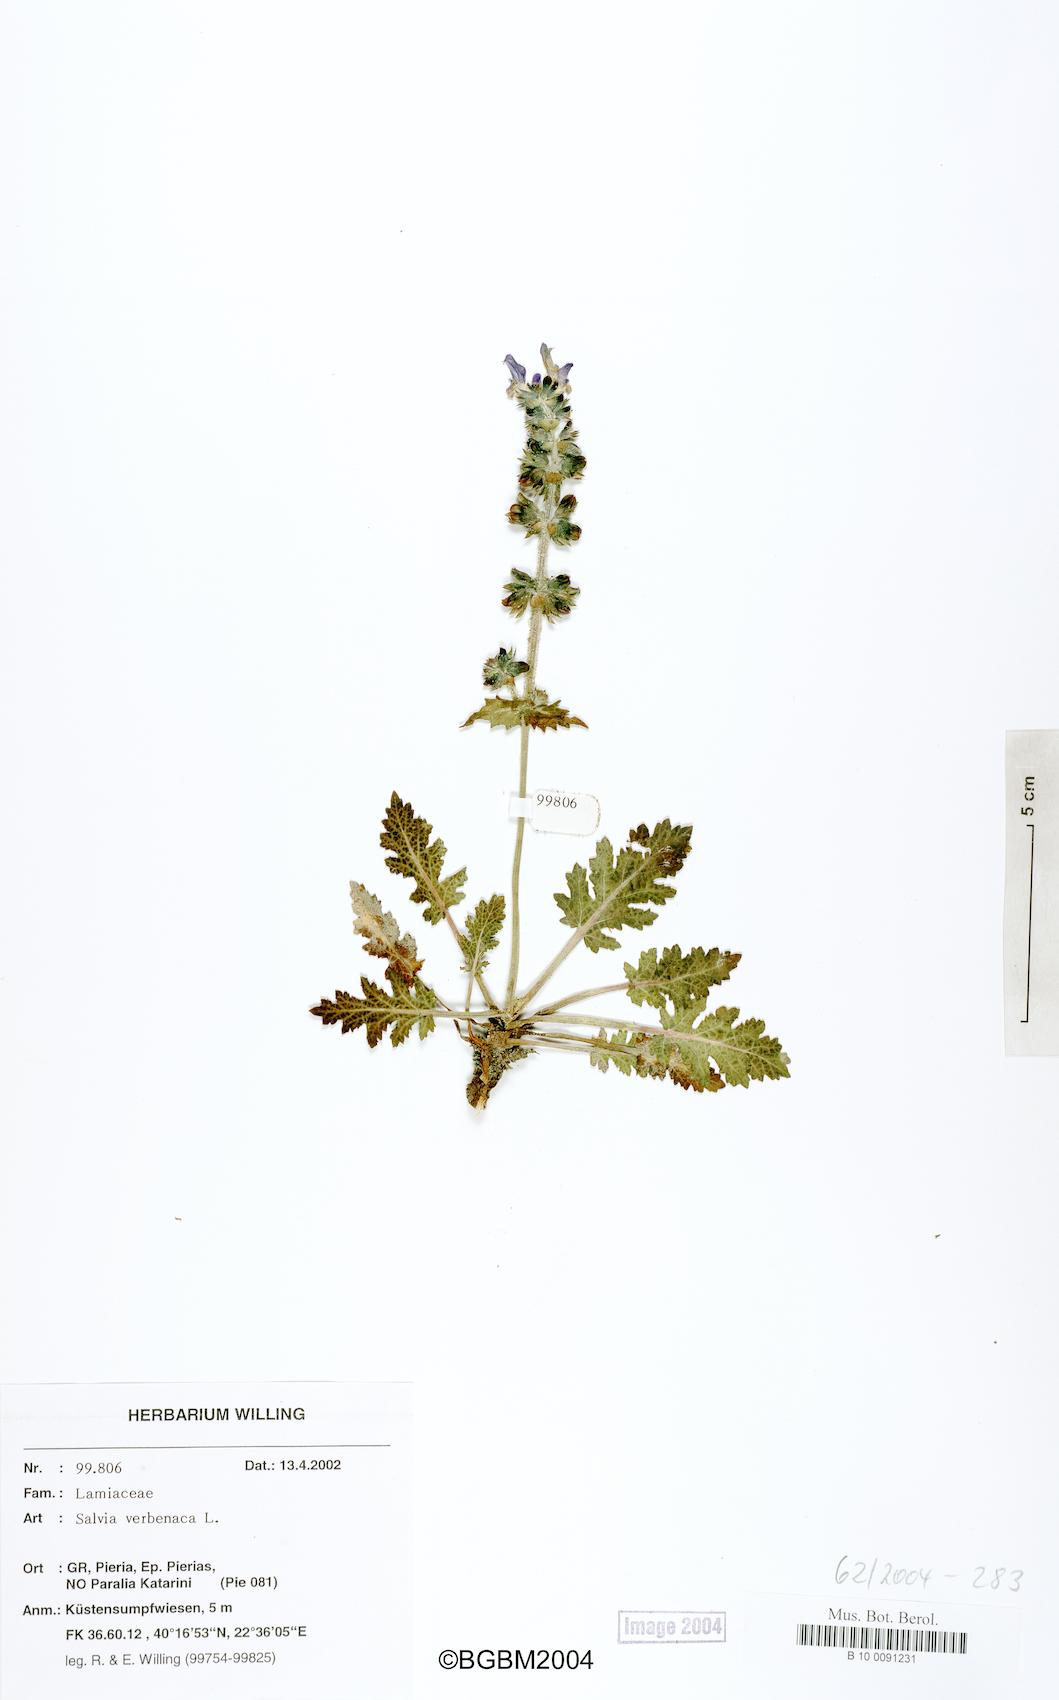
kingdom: Plantae
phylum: Tracheophyta
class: Magnoliopsida
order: Lamiales
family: Lamiaceae
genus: Salvia
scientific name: Salvia verbenaca
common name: Wild clary
